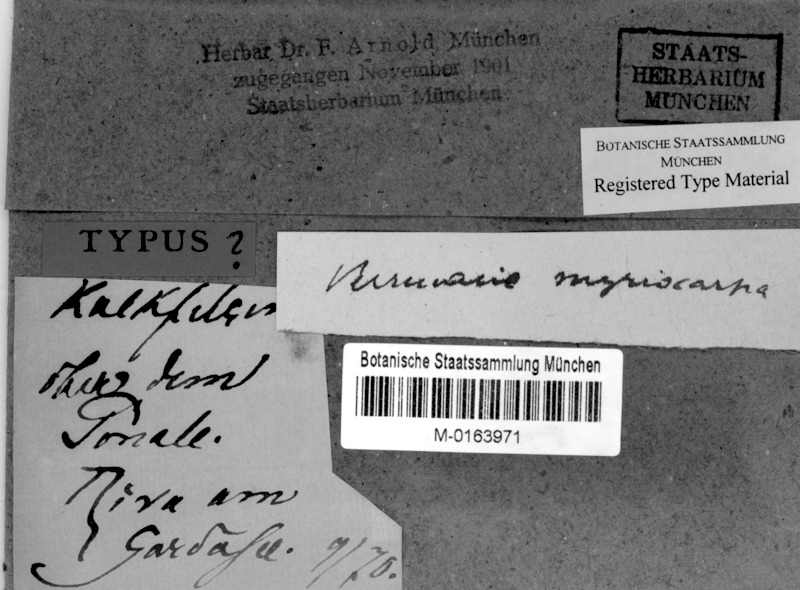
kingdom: Fungi
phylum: Ascomycota
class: Eurotiomycetes
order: Verrucariales
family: Verrucariaceae
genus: Verrucaria
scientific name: Verrucaria murina
